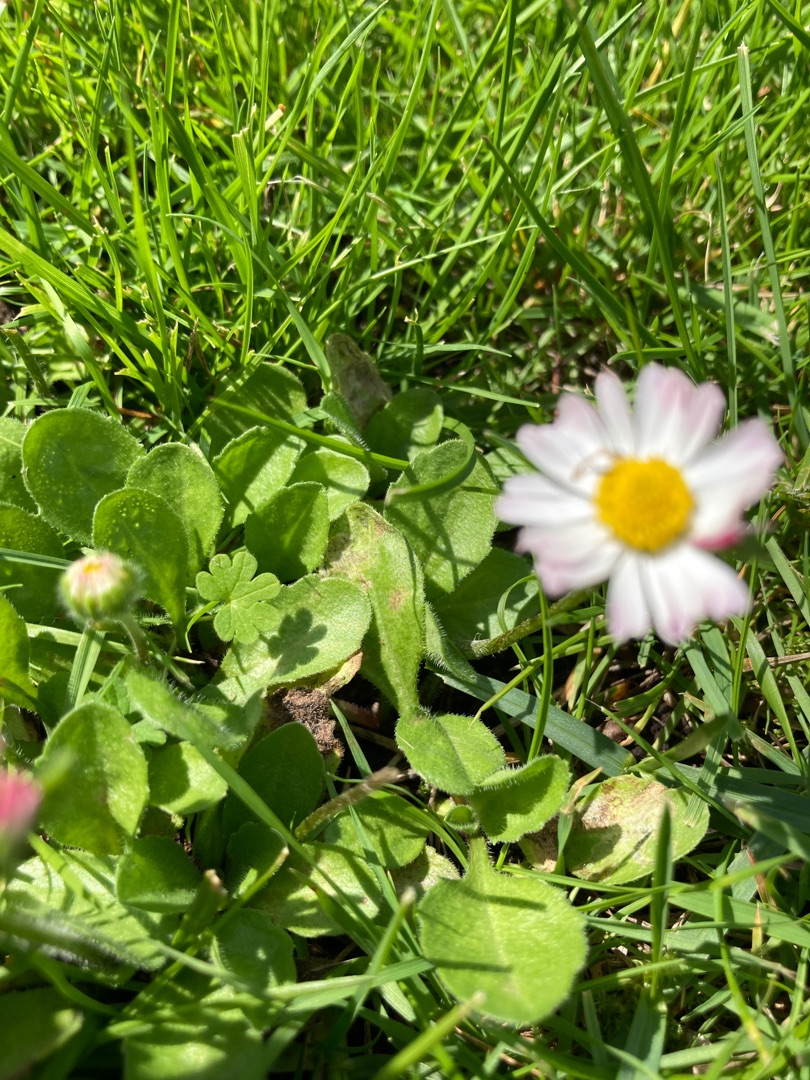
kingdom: Plantae
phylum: Tracheophyta
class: Magnoliopsida
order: Asterales
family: Asteraceae
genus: Bellis
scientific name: Bellis perennis
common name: Tusindfryd
